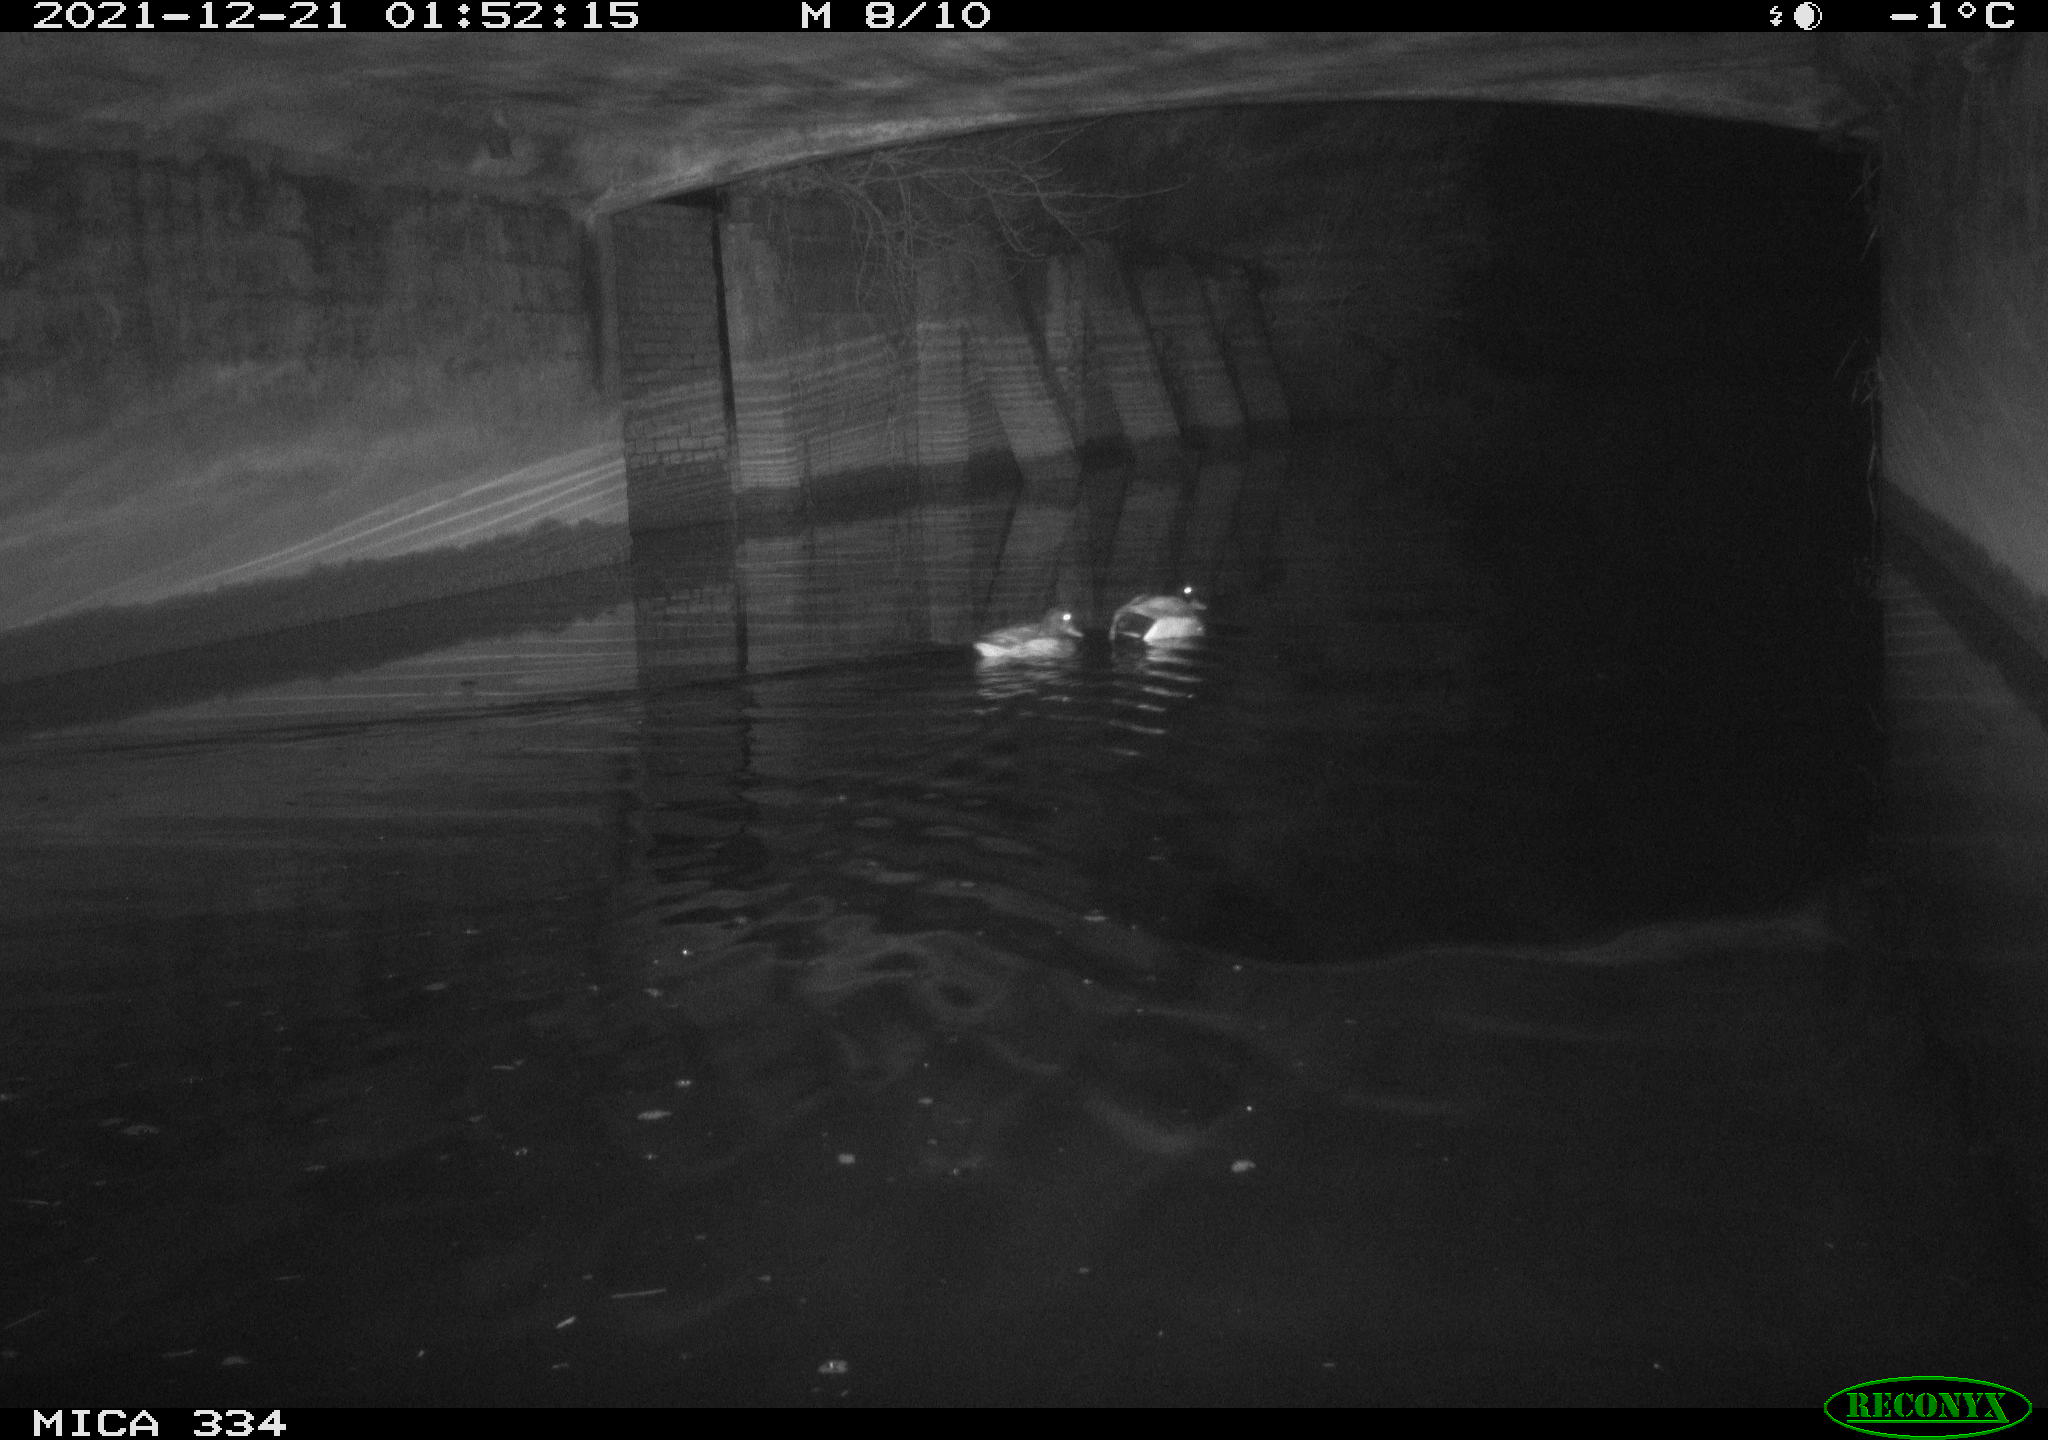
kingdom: Animalia
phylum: Chordata
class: Aves
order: Anseriformes
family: Anatidae
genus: Anas
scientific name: Anas platyrhynchos
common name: Mallard
